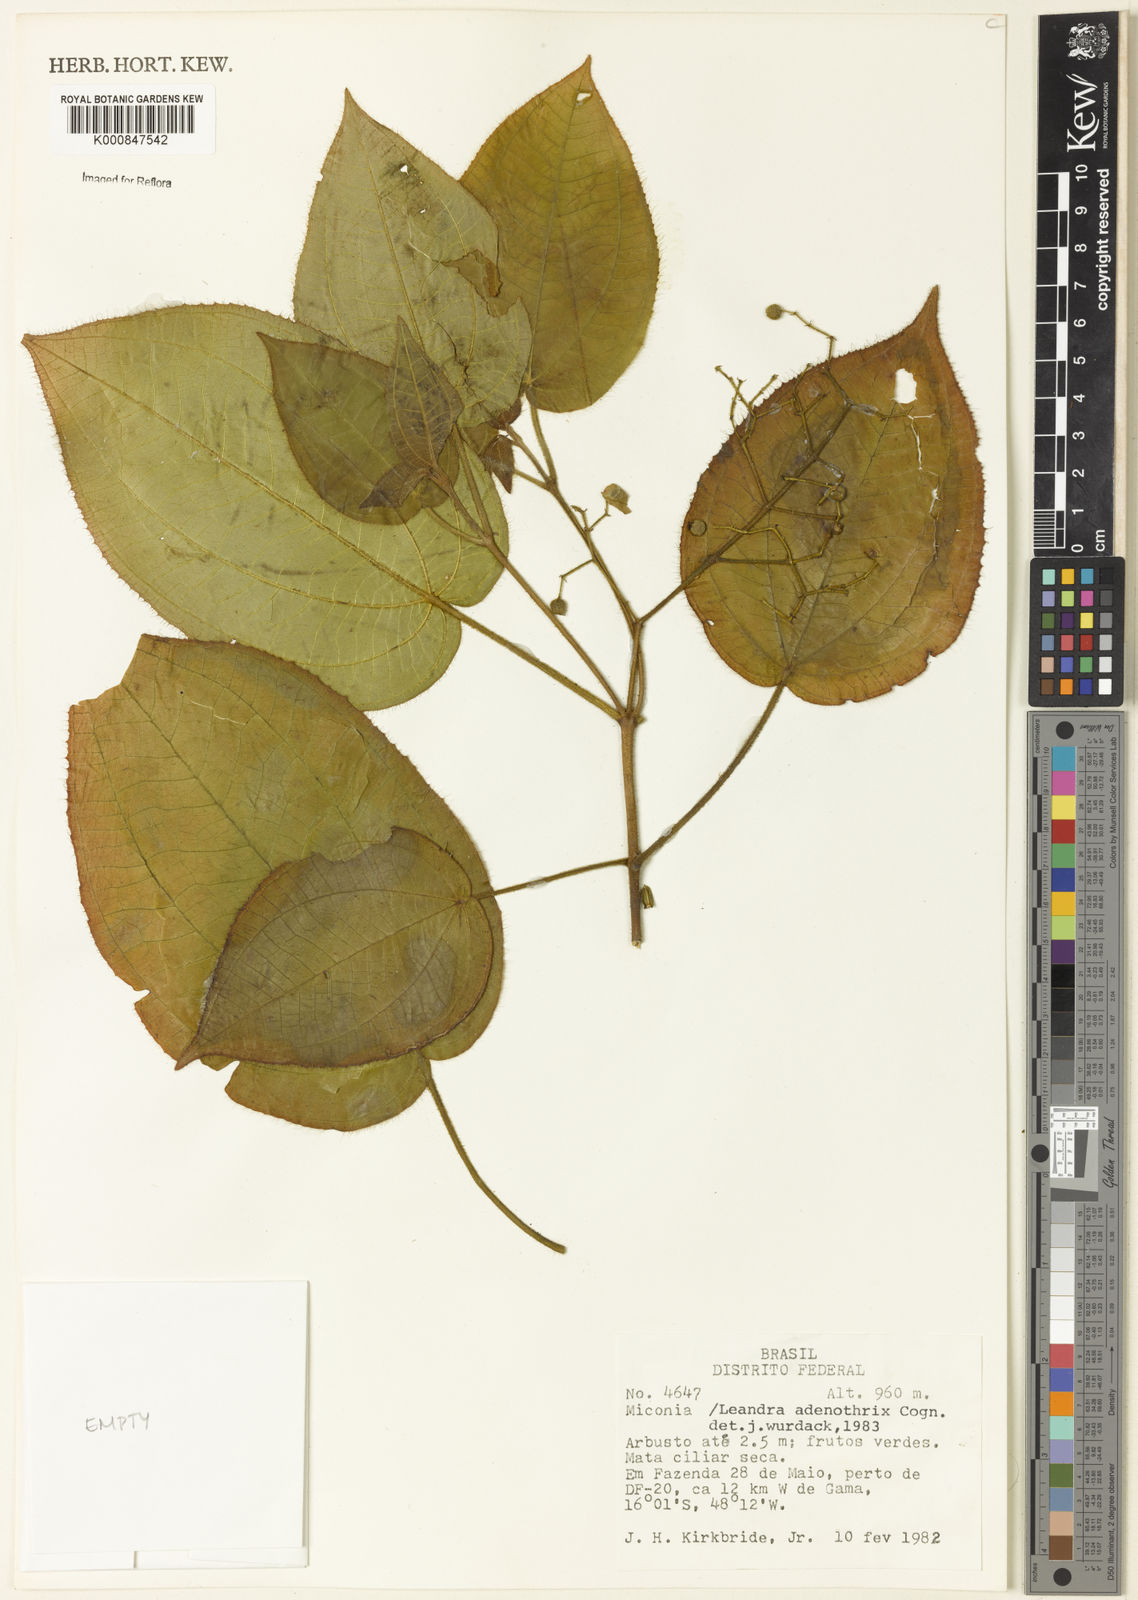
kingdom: Plantae
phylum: Tracheophyta
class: Magnoliopsida
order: Myrtales
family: Melastomataceae
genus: Miconia
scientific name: Miconia adenothrix
